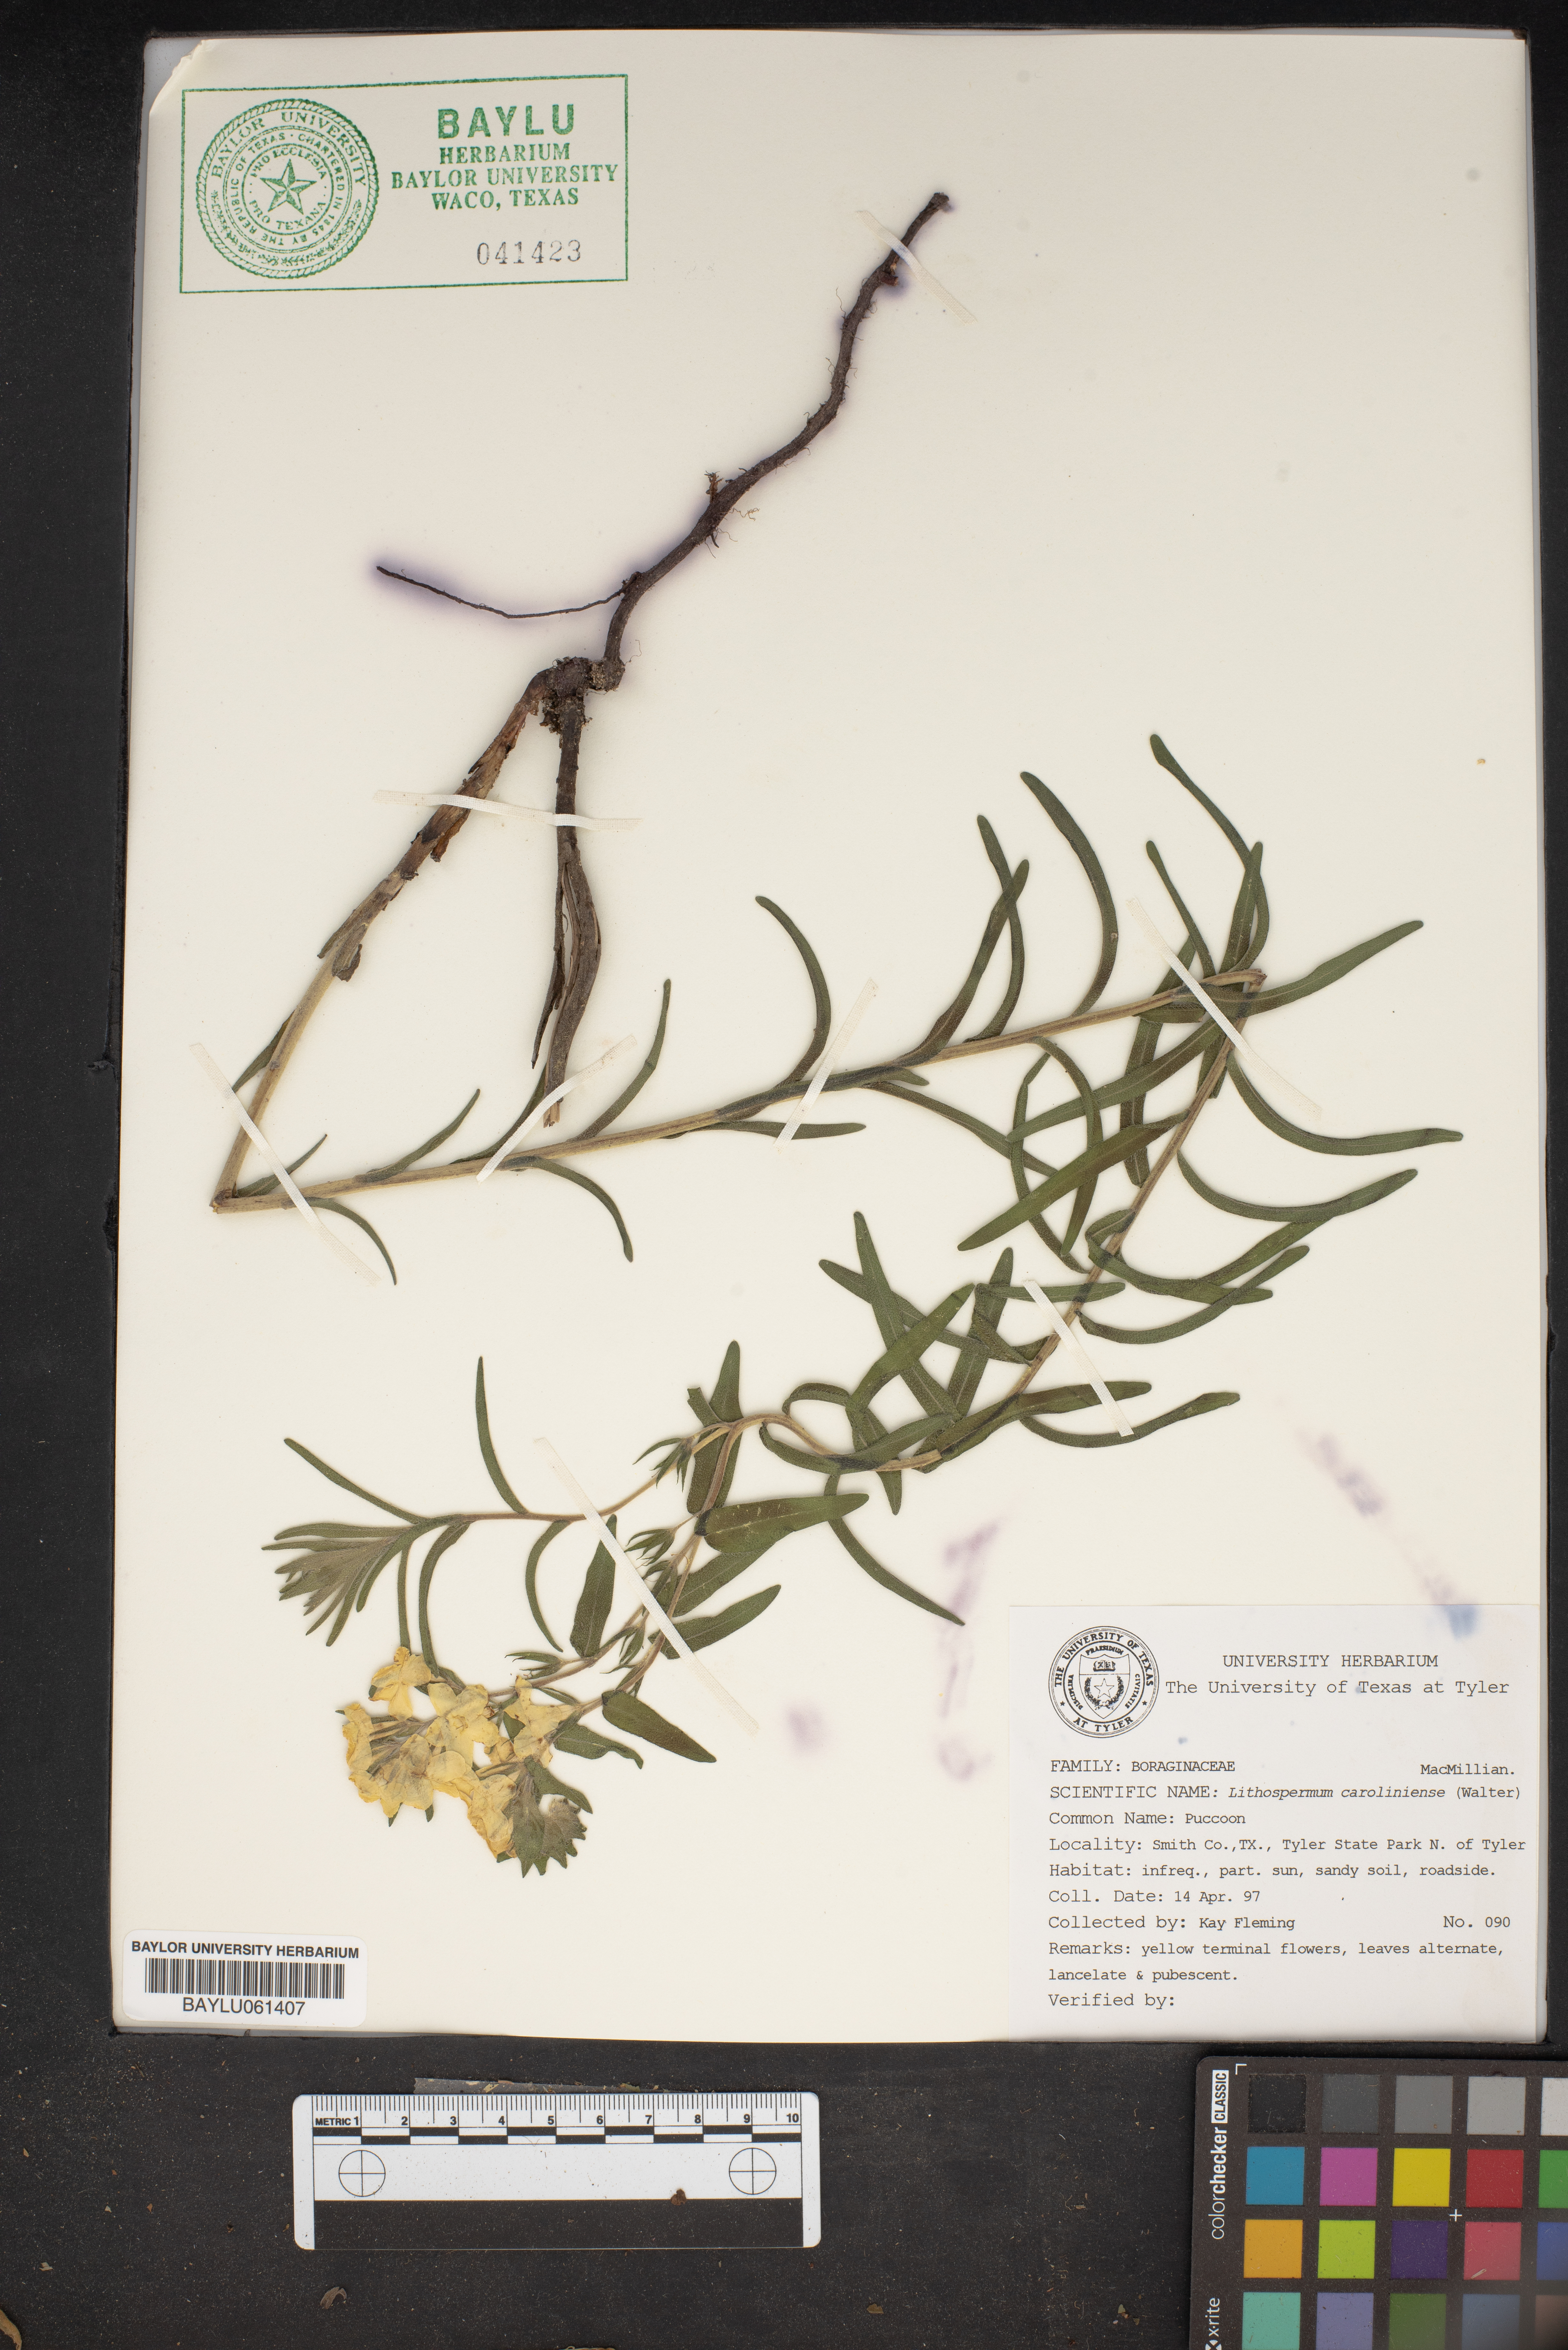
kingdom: Plantae
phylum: Tracheophyta
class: Magnoliopsida
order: Boraginales
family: Boraginaceae
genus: Lithospermum
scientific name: Lithospermum caroliniense
